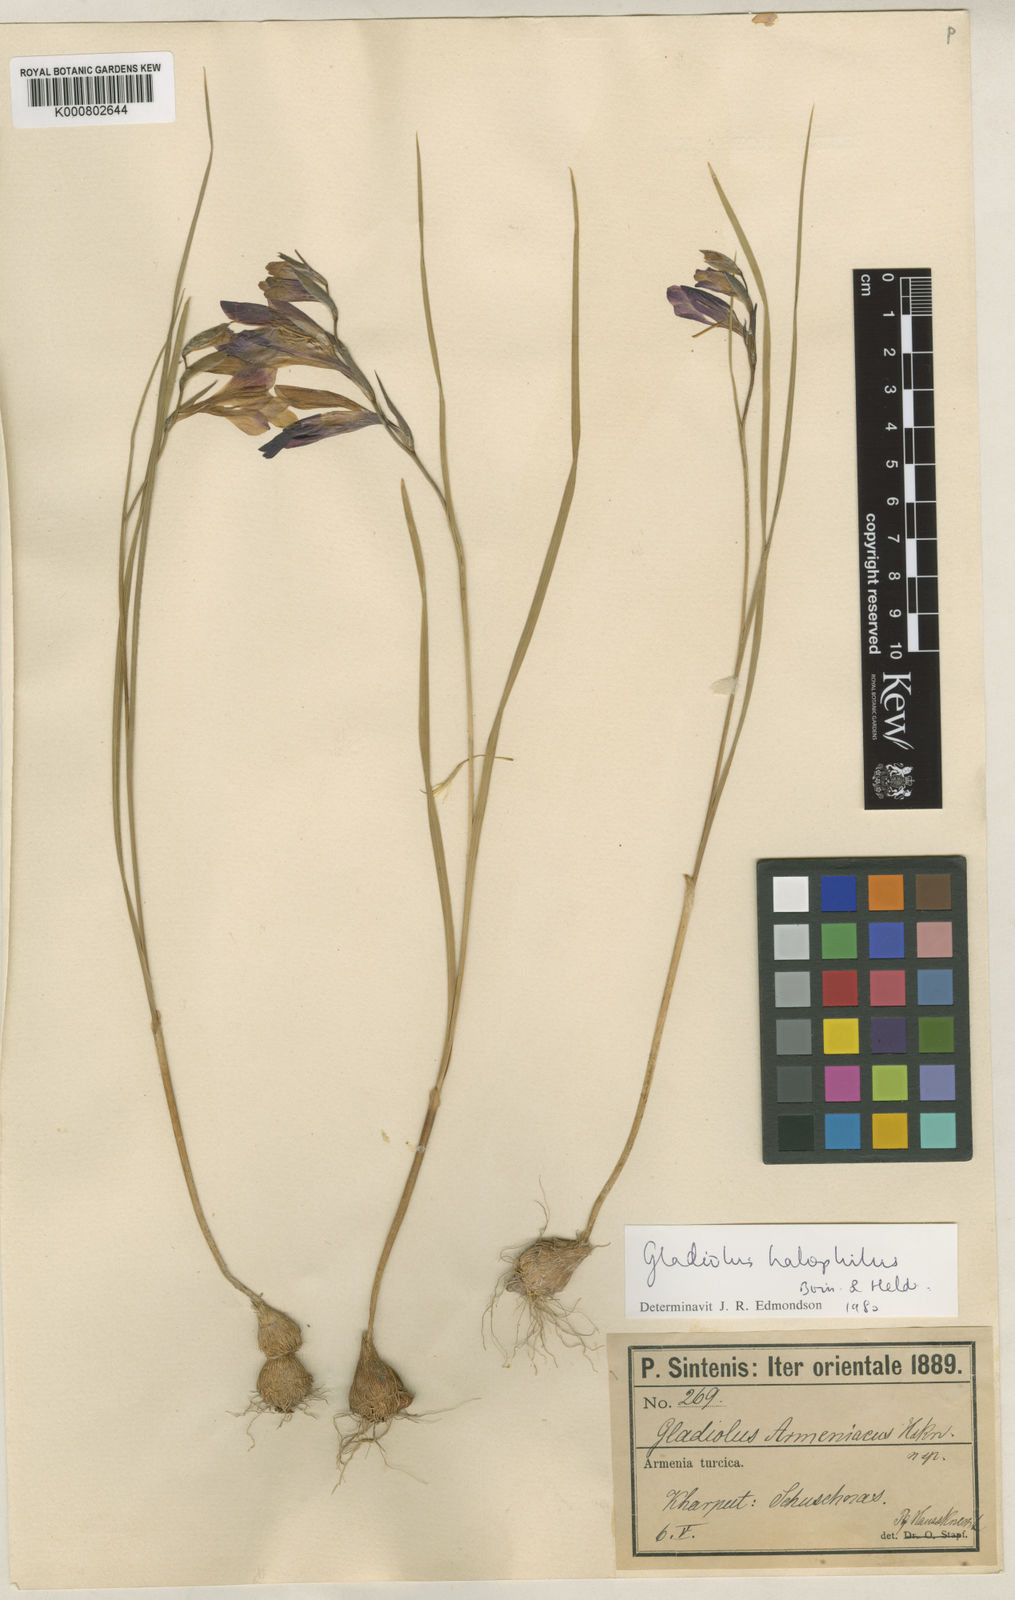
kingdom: Plantae
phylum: Tracheophyta
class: Liliopsida
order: Asparagales
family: Iridaceae
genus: Gladiolus
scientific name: Gladiolus atroviolaceus
